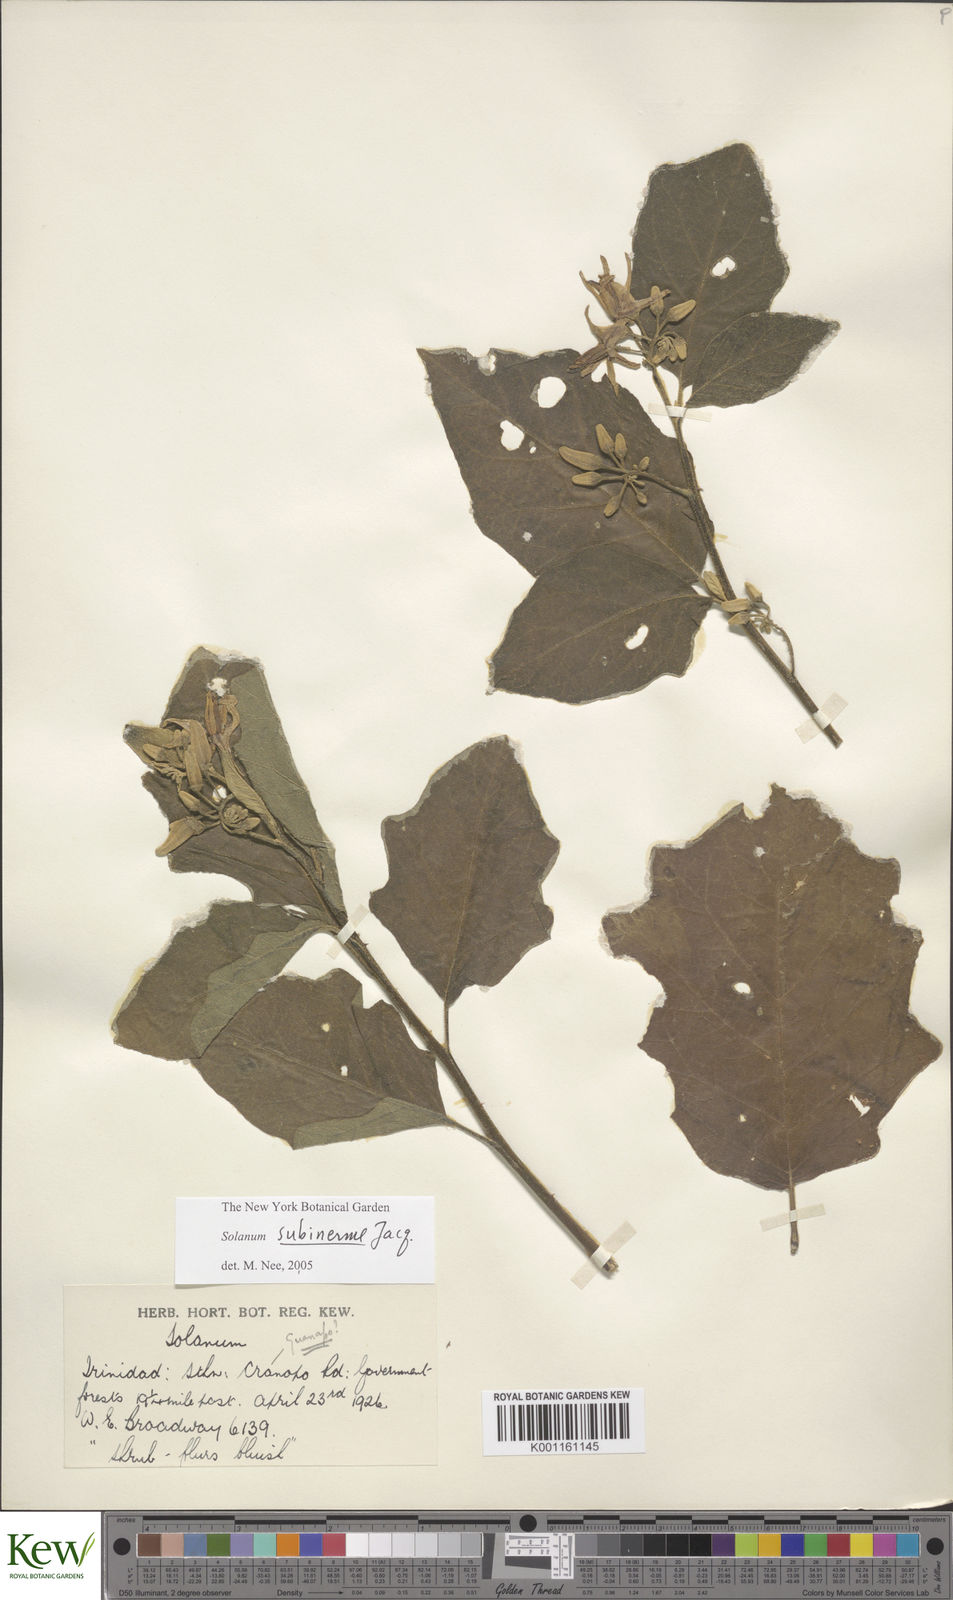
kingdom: Plantae
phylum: Tracheophyta
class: Magnoliopsida
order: Solanales
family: Solanaceae
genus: Solanum
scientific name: Solanum subinerme
